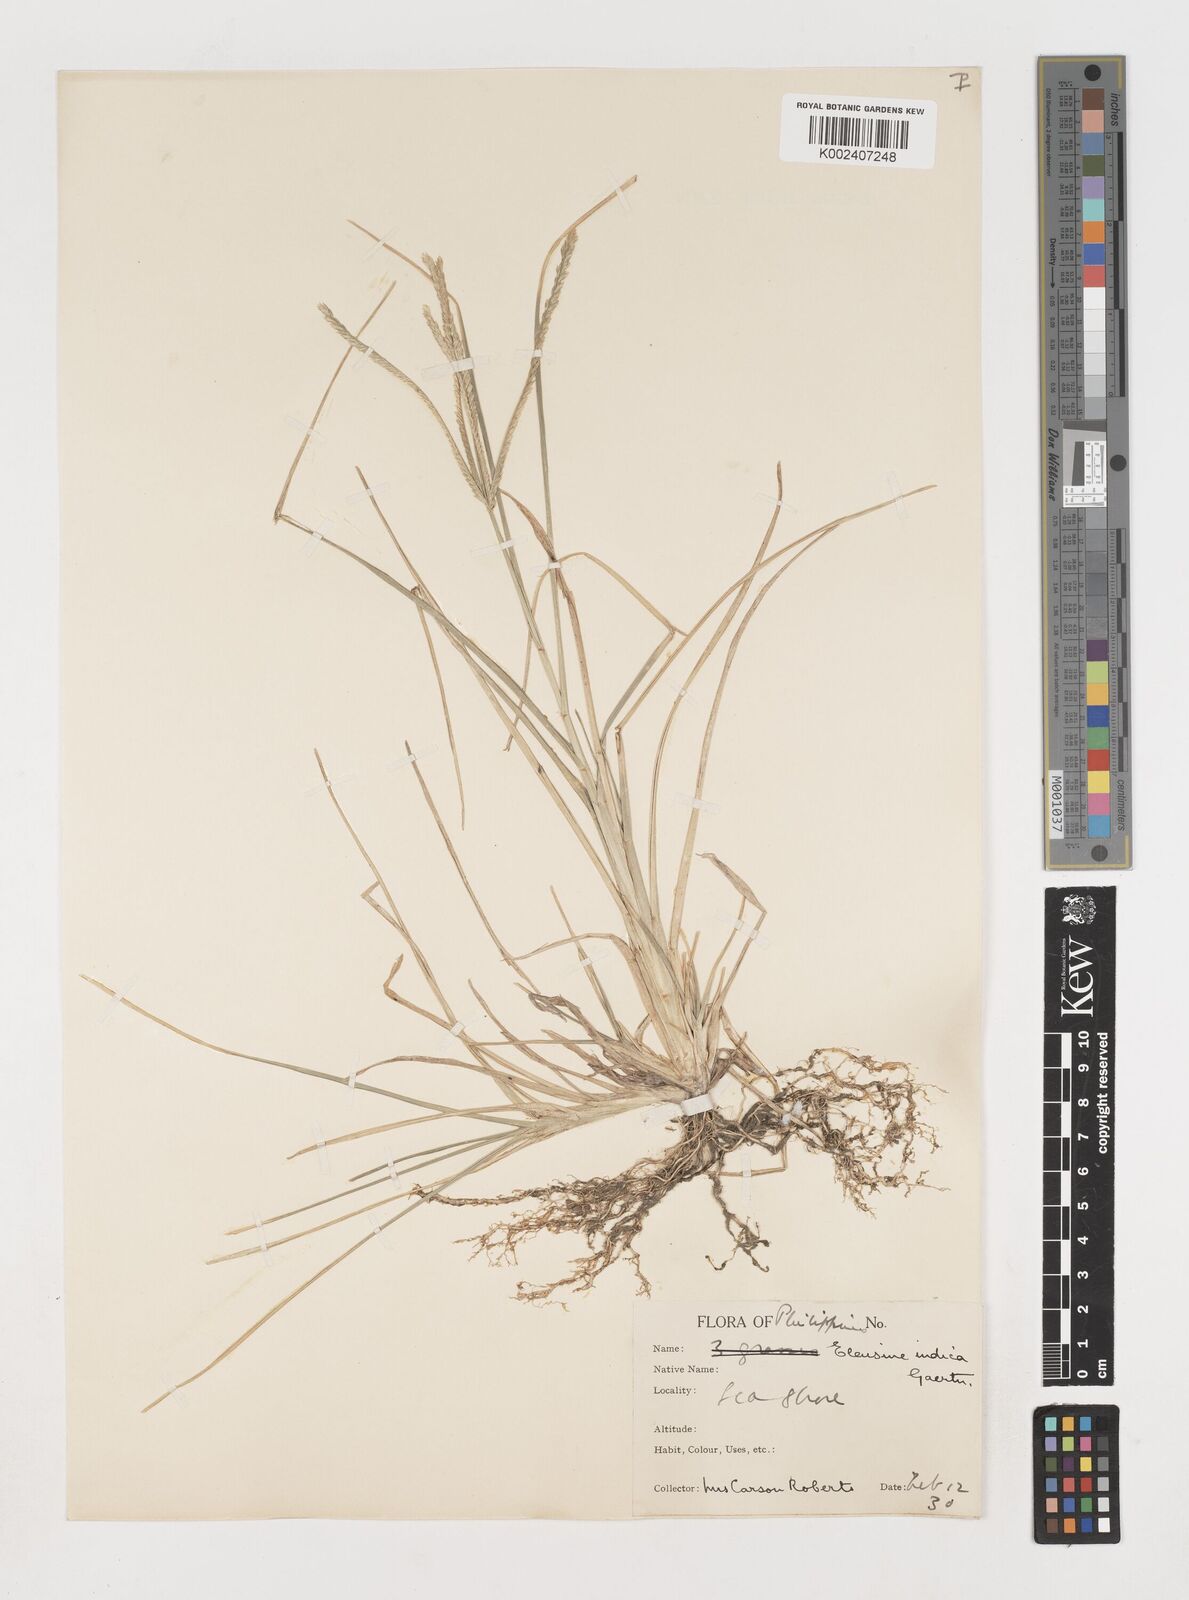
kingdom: Plantae
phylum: Tracheophyta
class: Liliopsida
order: Poales
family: Poaceae
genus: Eleusine
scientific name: Eleusine indica
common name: Yard-grass
